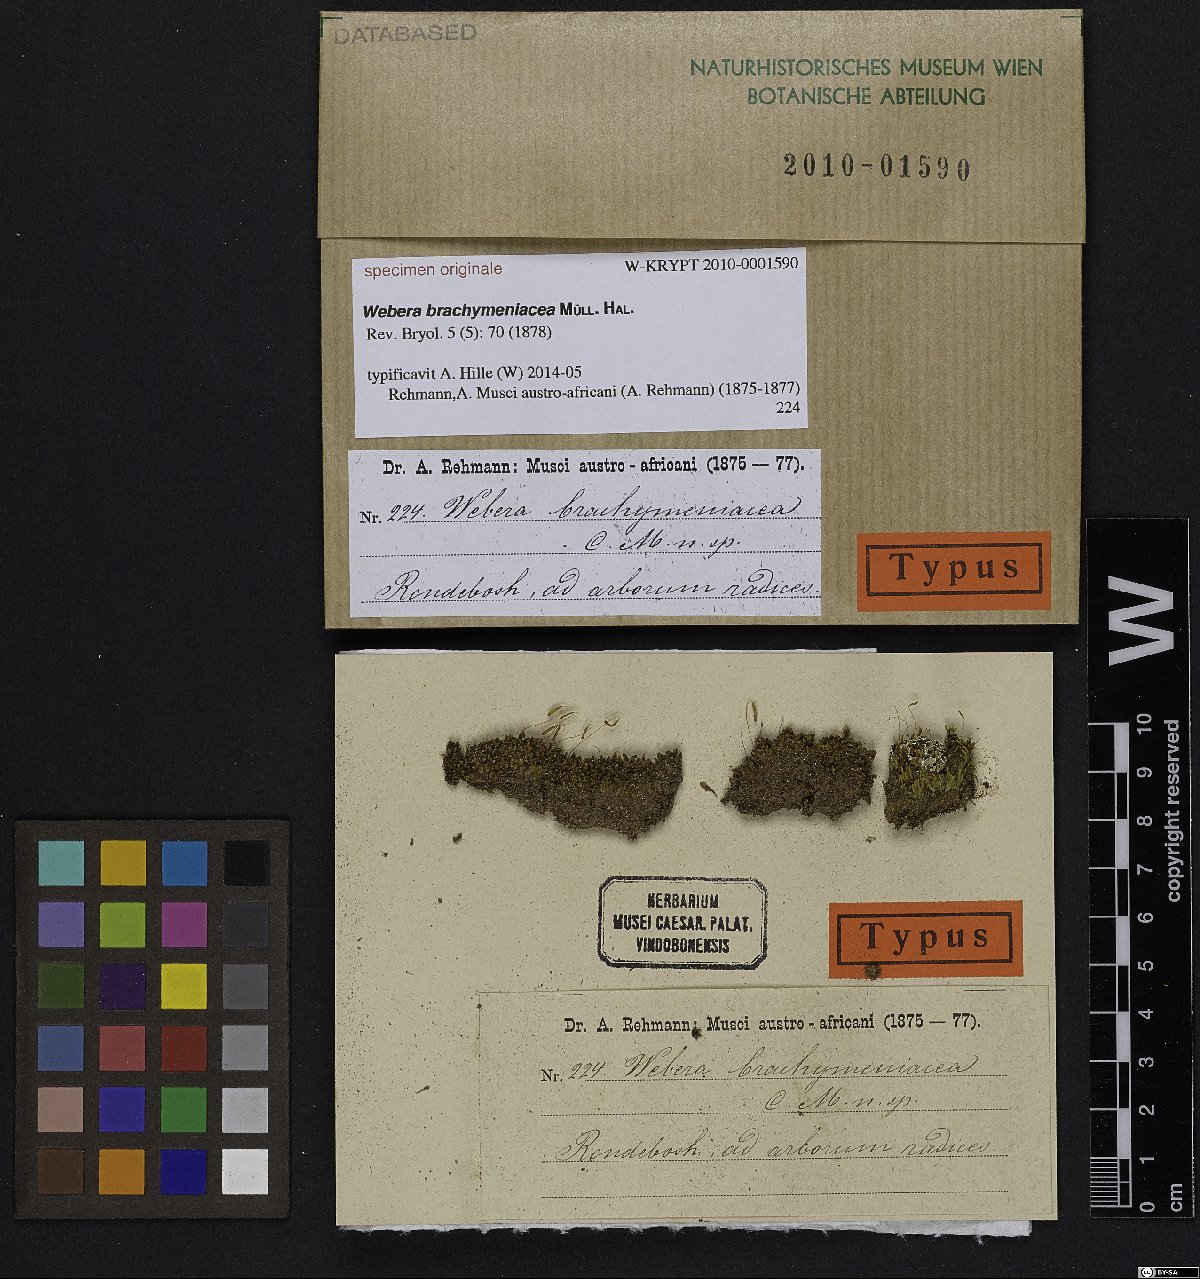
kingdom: Plantae
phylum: Bryophyta
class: Bryopsida
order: Bryales
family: Bryaceae
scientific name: Bryaceae
